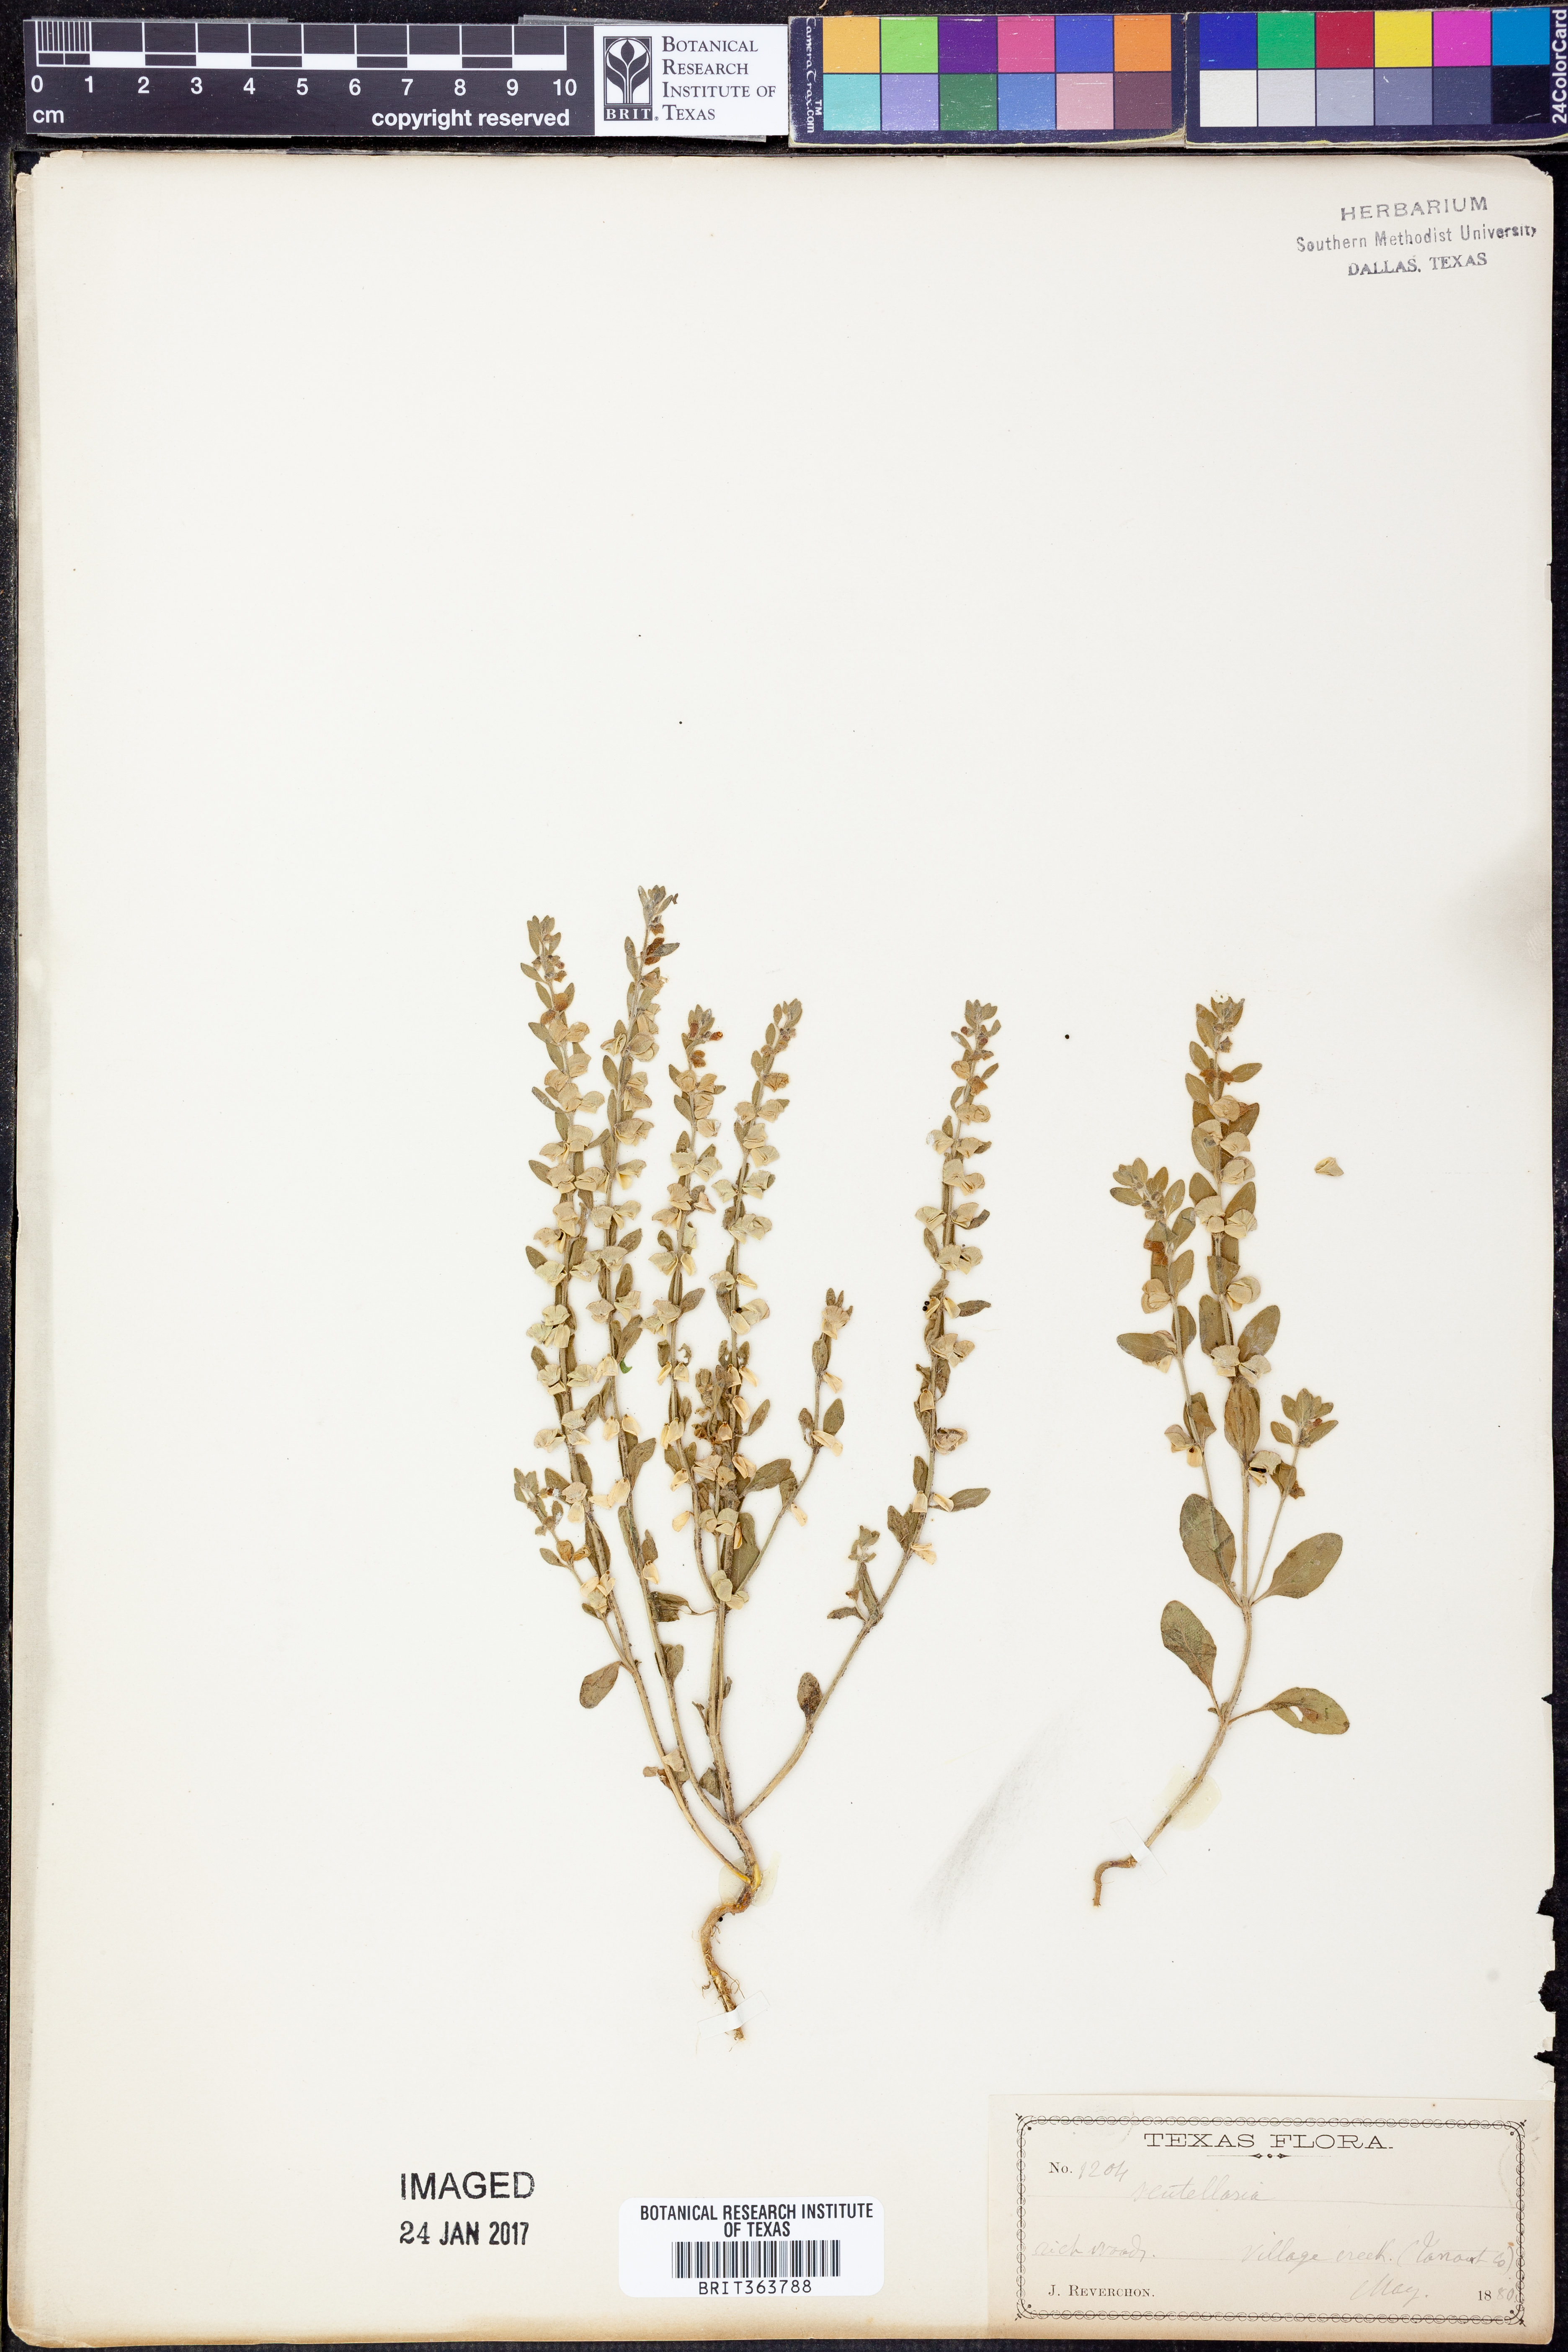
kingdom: Plantae
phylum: Tracheophyta
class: Magnoliopsida
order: Lamiales
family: Lamiaceae
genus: Scutellaria
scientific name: Scutellaria
